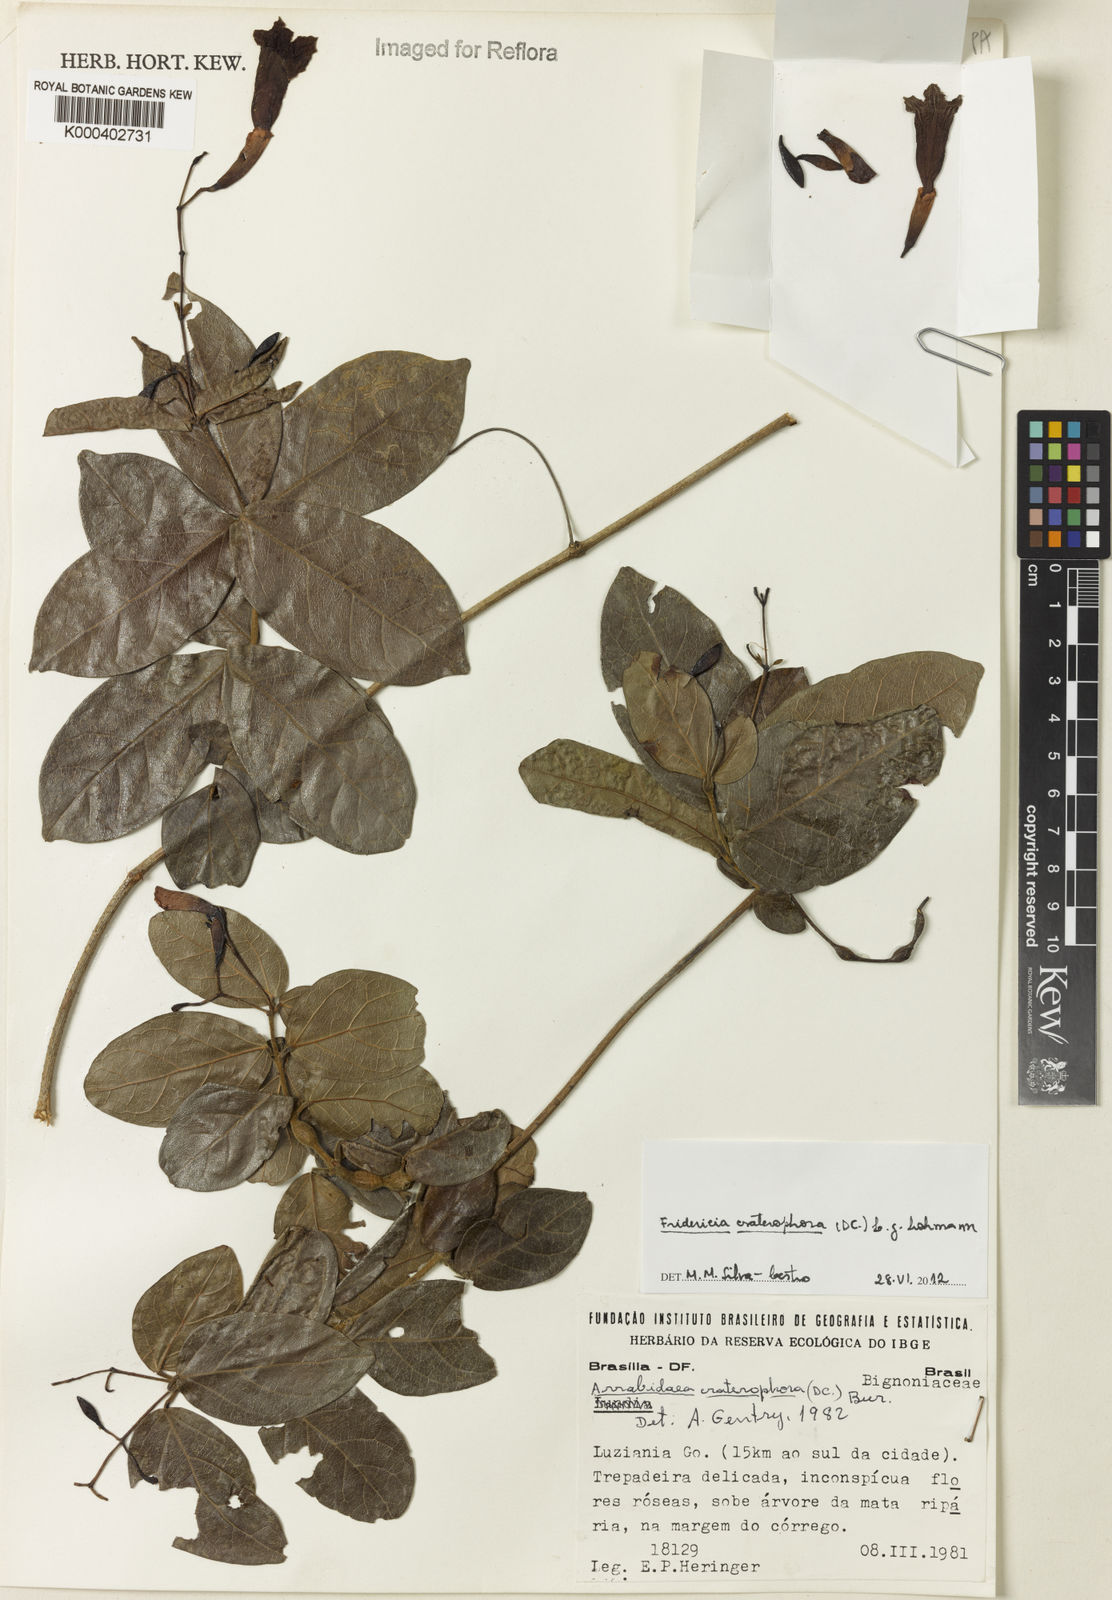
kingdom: Plantae
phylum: Tracheophyta
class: Magnoliopsida
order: Lamiales
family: Bignoniaceae
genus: Fridericia
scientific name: Fridericia craterophora
